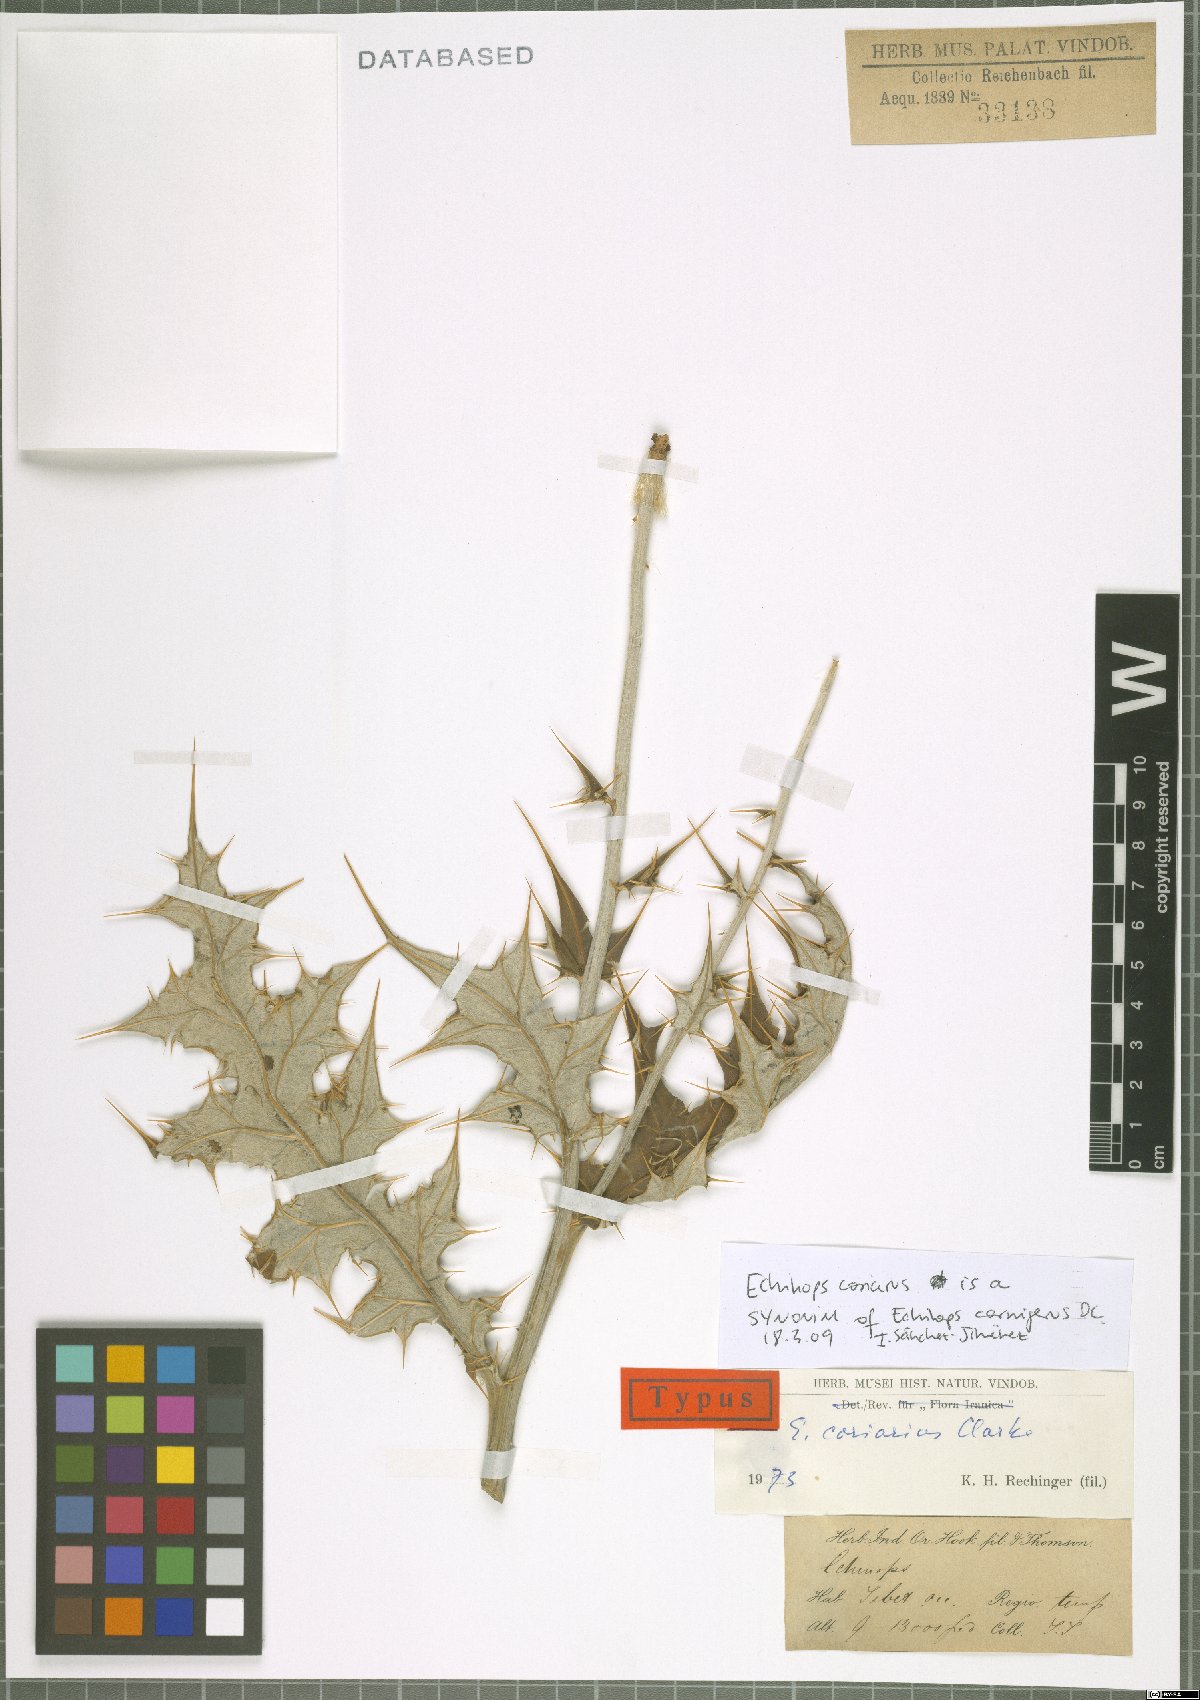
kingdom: Plantae
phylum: Tracheophyta
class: Magnoliopsida
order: Asterales
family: Asteraceae
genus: Echinops
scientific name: Echinops cornigerus
